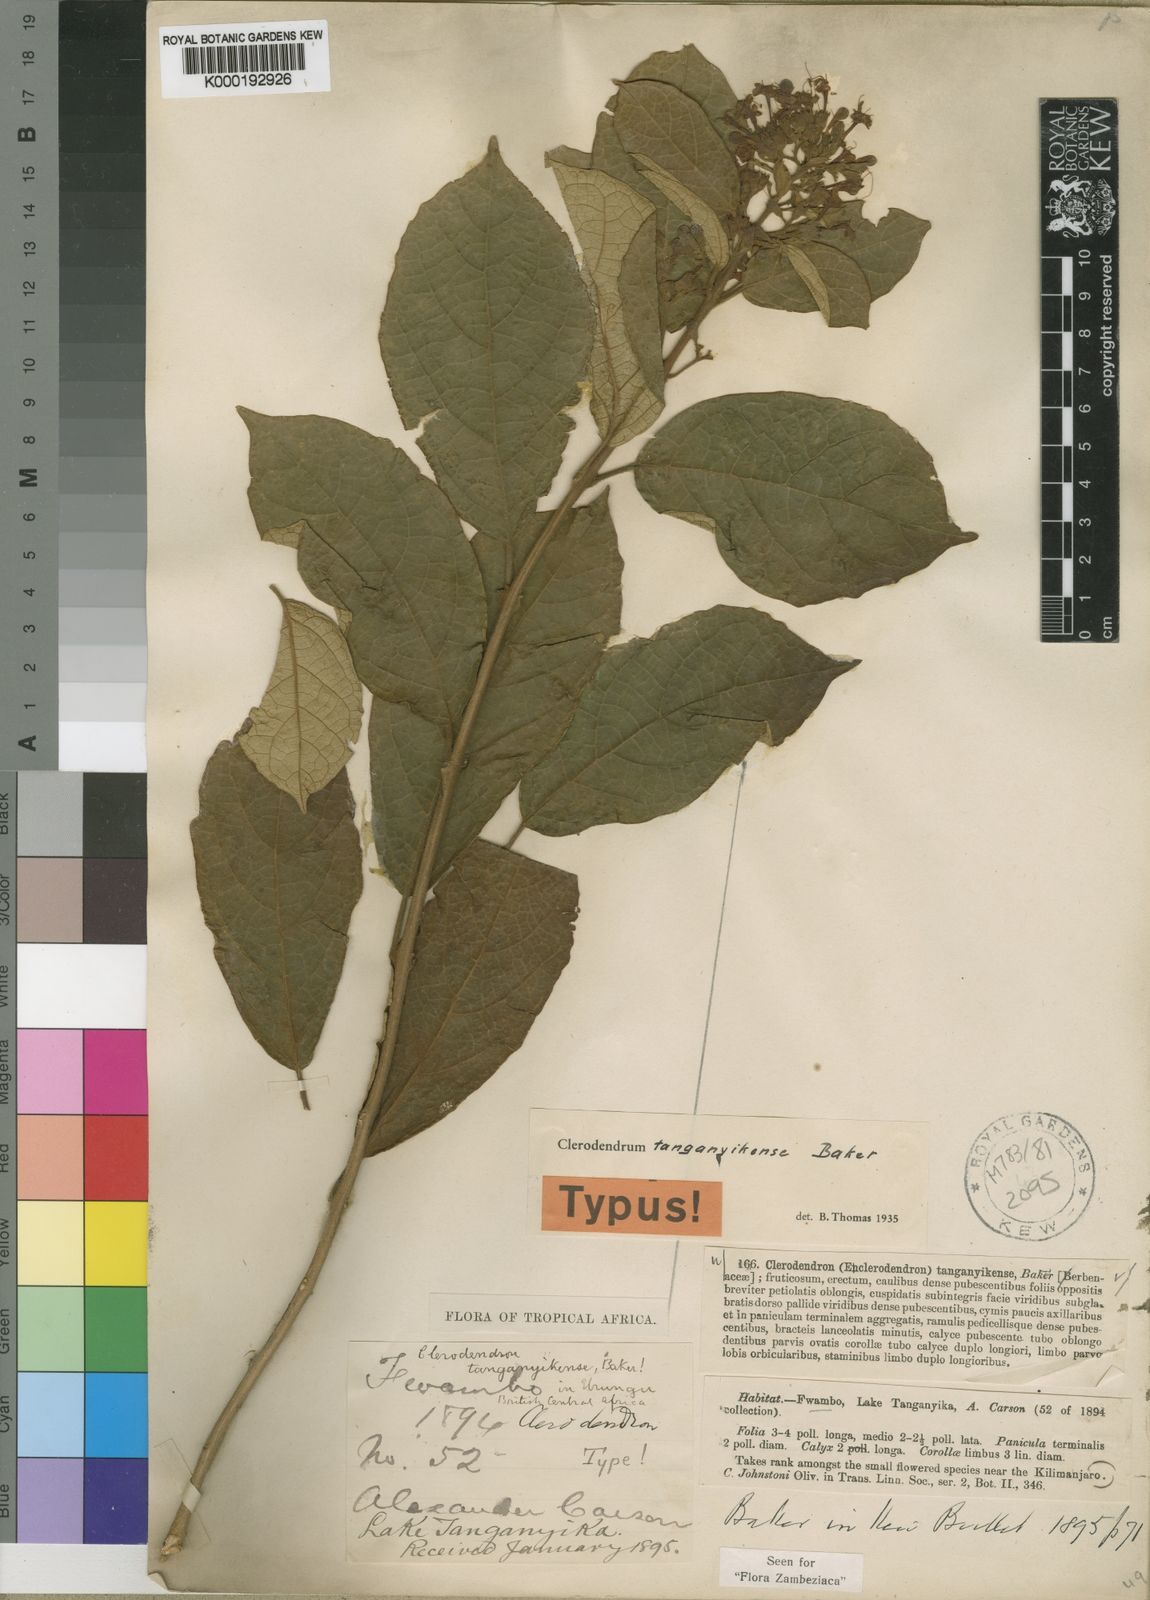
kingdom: Plantae
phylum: Tracheophyta
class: Magnoliopsida
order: Lamiales
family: Lamiaceae
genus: Clerodendrum
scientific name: Clerodendrum tanganyikense
